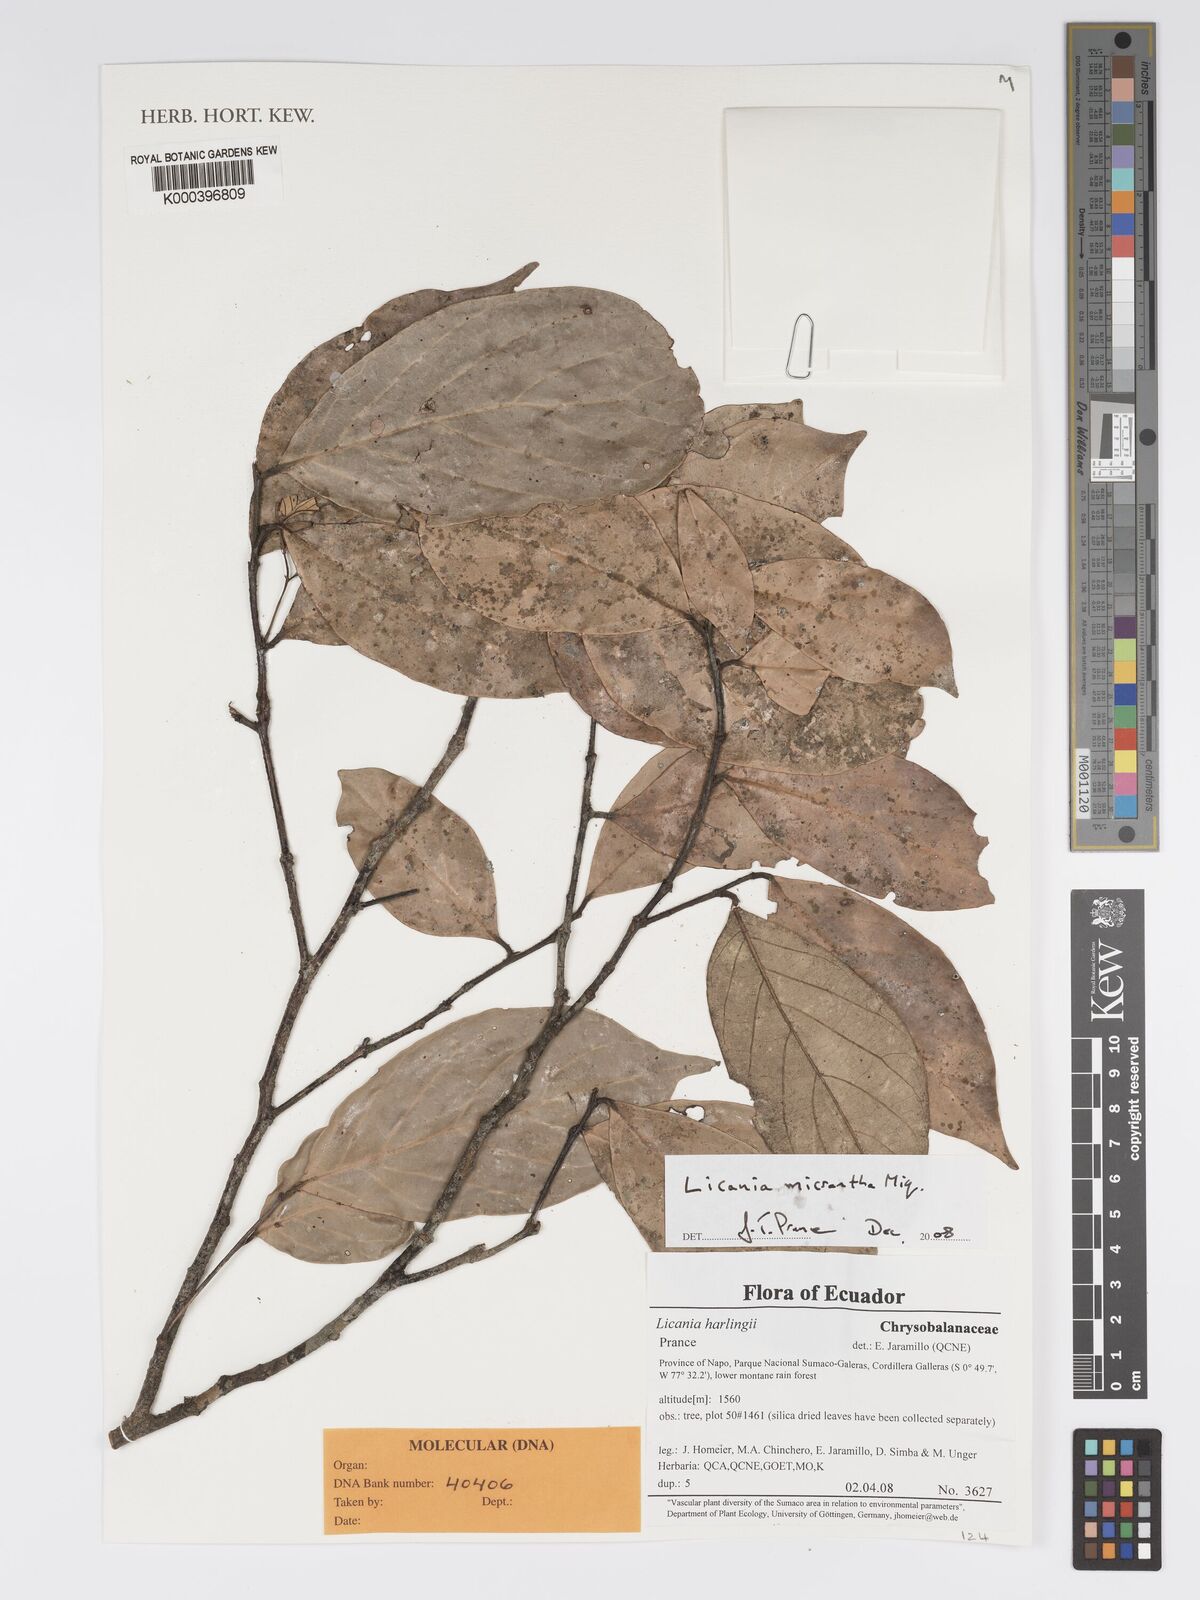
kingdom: Plantae
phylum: Tracheophyta
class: Magnoliopsida
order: Malpighiales
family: Chrysobalanaceae
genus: Licania
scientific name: Licania harlingii
